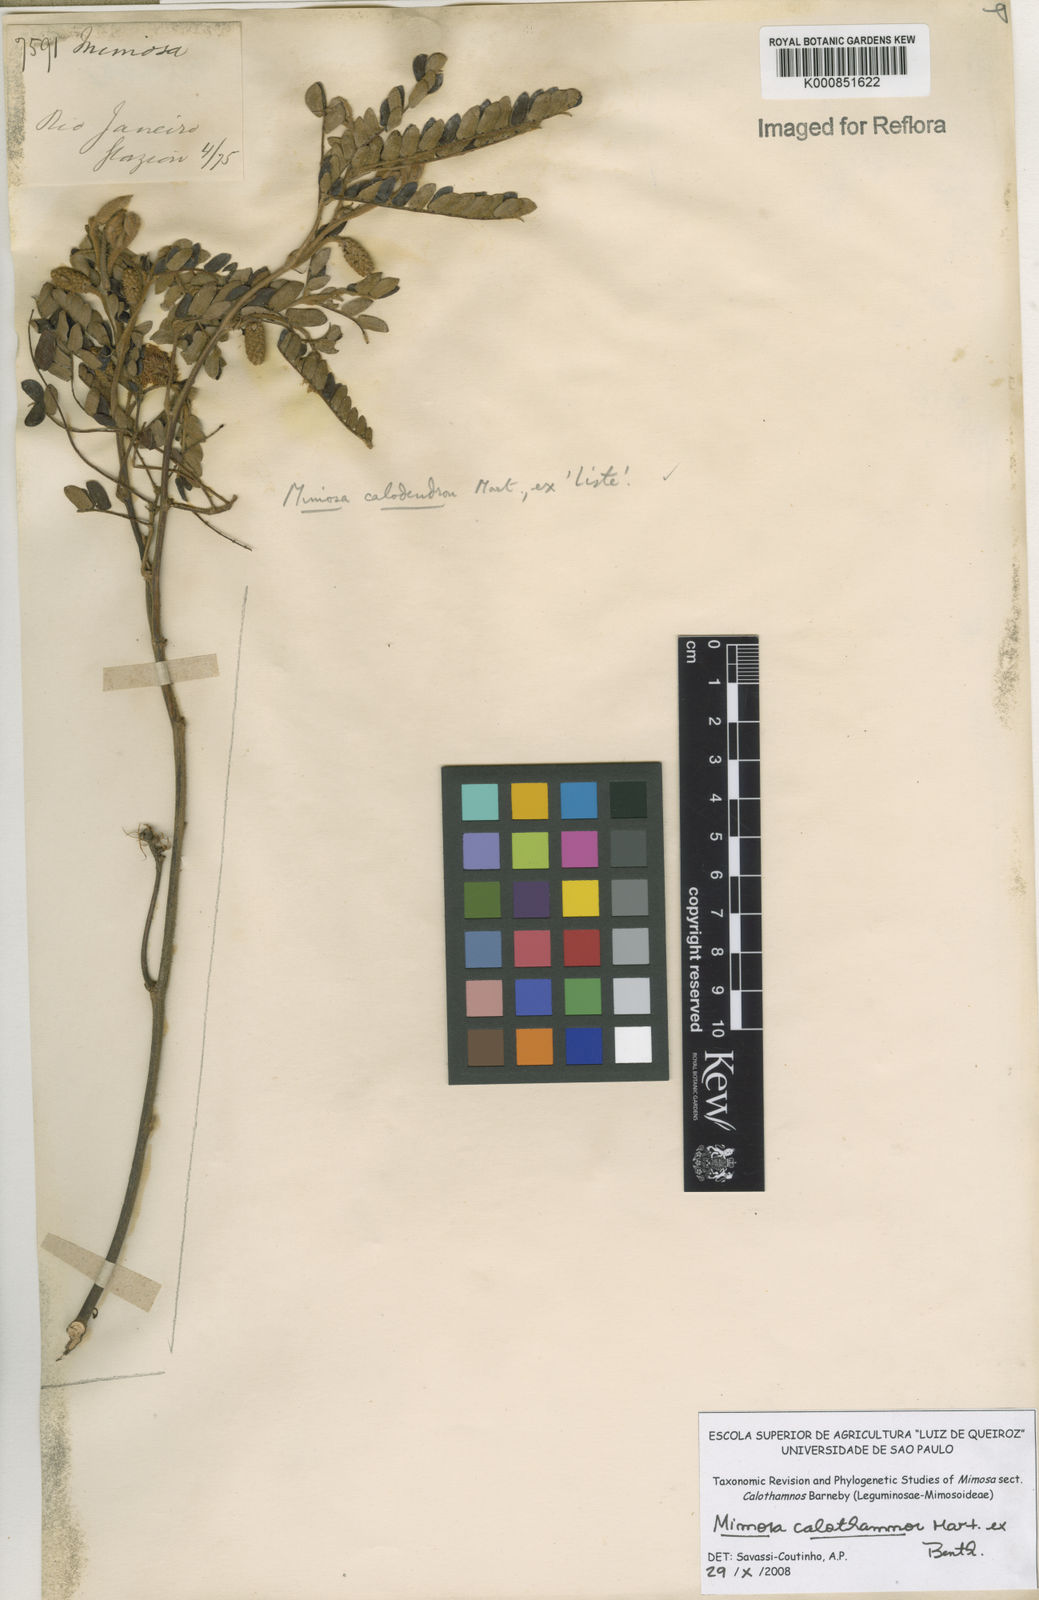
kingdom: Plantae
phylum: Tracheophyta
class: Magnoliopsida
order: Fabales
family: Fabaceae
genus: Mimosa
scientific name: Mimosa aurivillus
